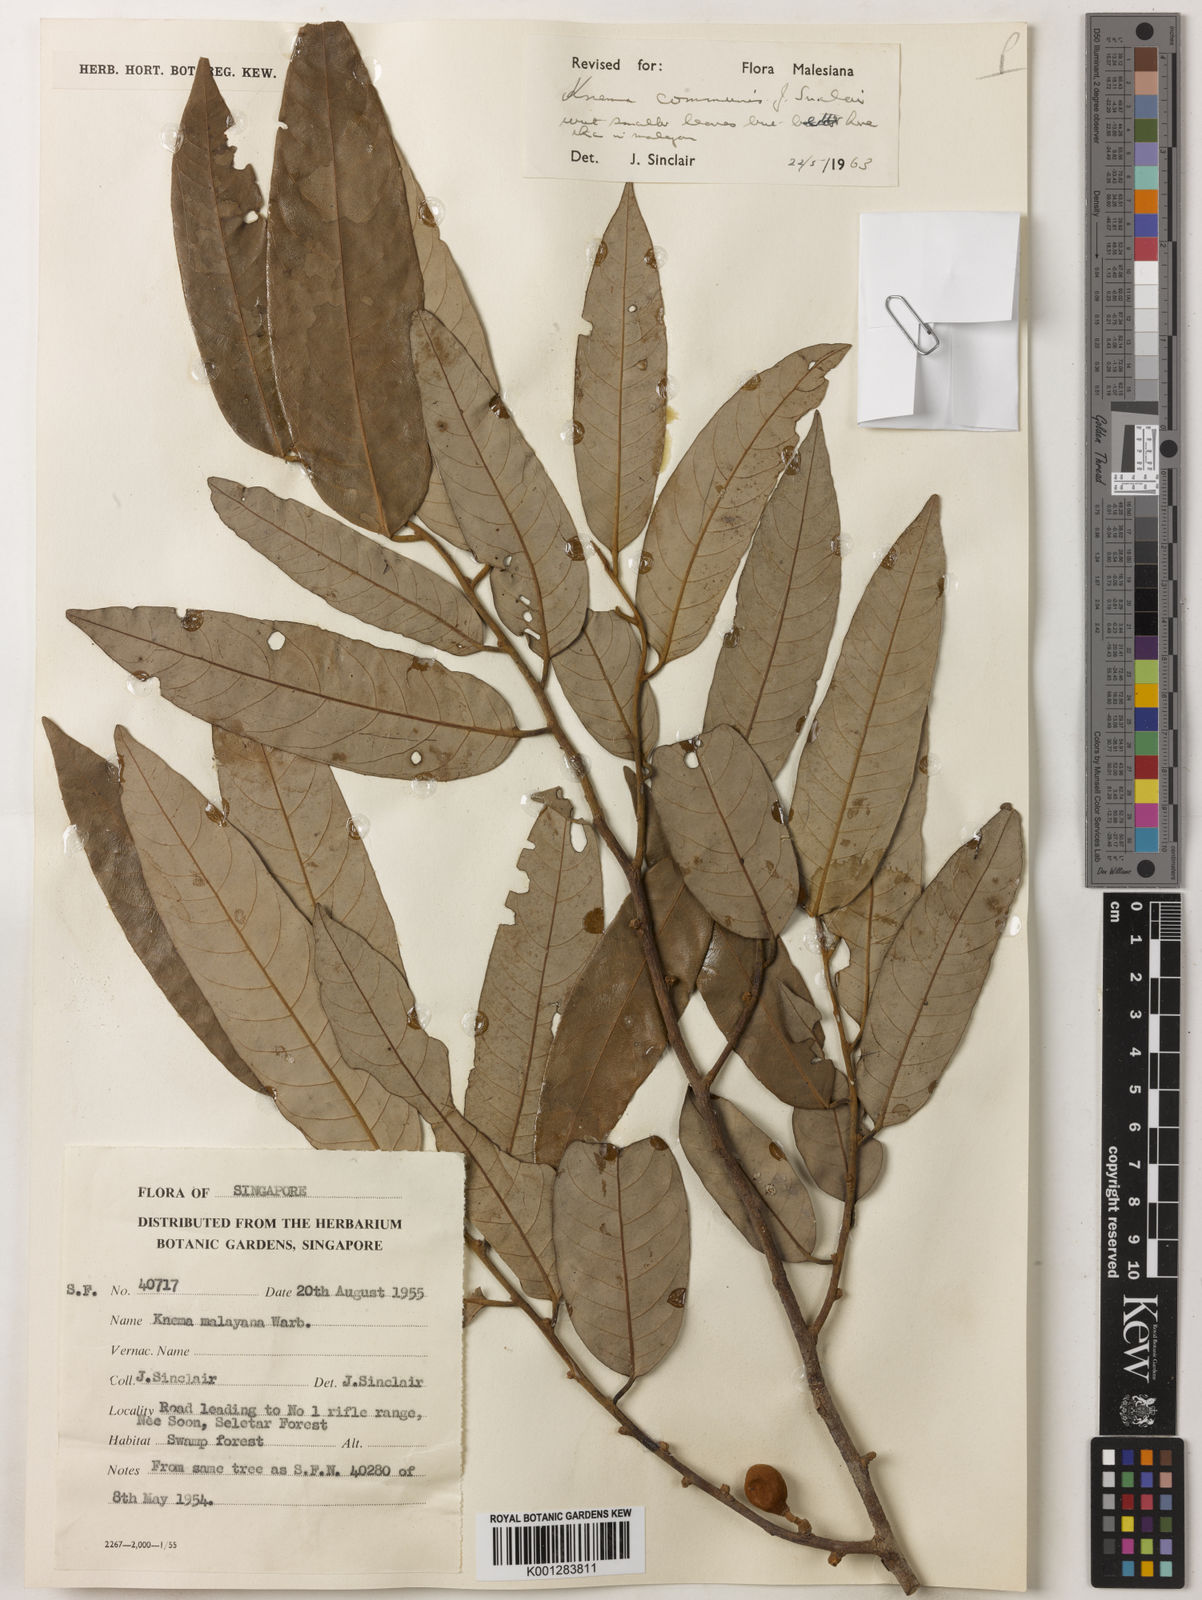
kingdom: Plantae
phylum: Tracheophyta
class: Magnoliopsida
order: Magnoliales
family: Myristicaceae
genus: Knema
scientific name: Knema communis
